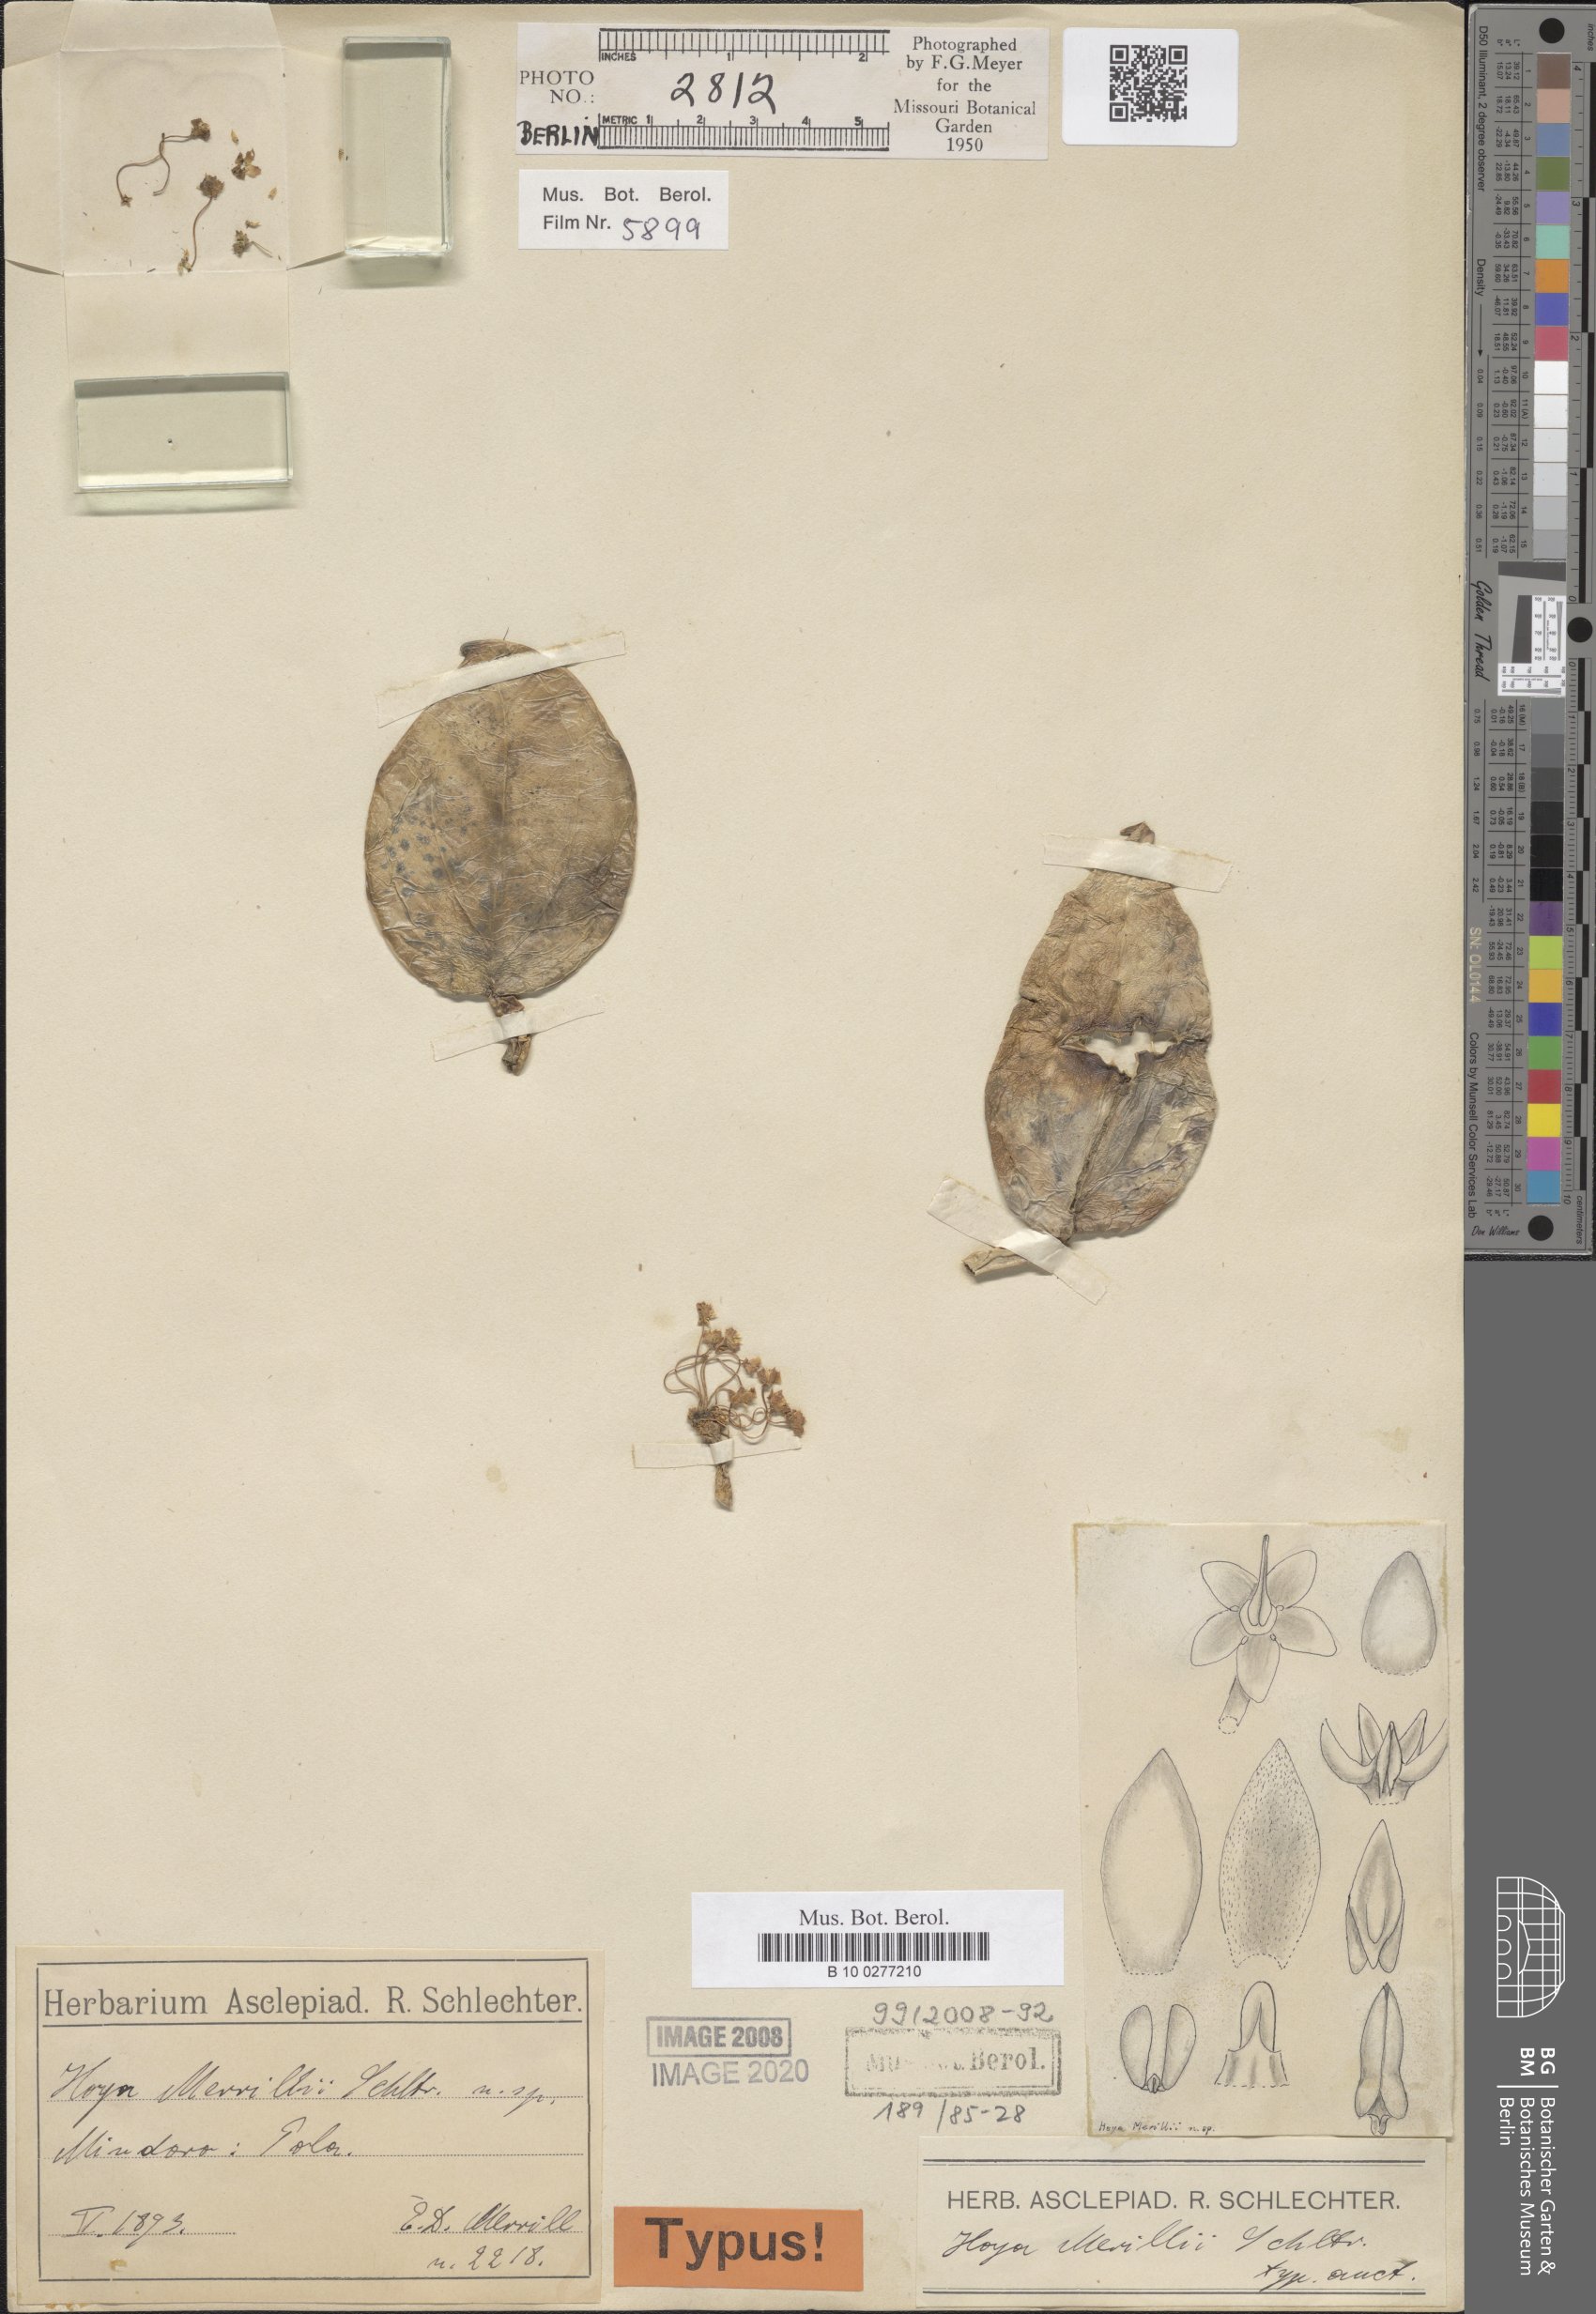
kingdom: Plantae
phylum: Tracheophyta
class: Magnoliopsida
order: Gentianales
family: Apocynaceae
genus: Hoya
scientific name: Hoya merrillii
